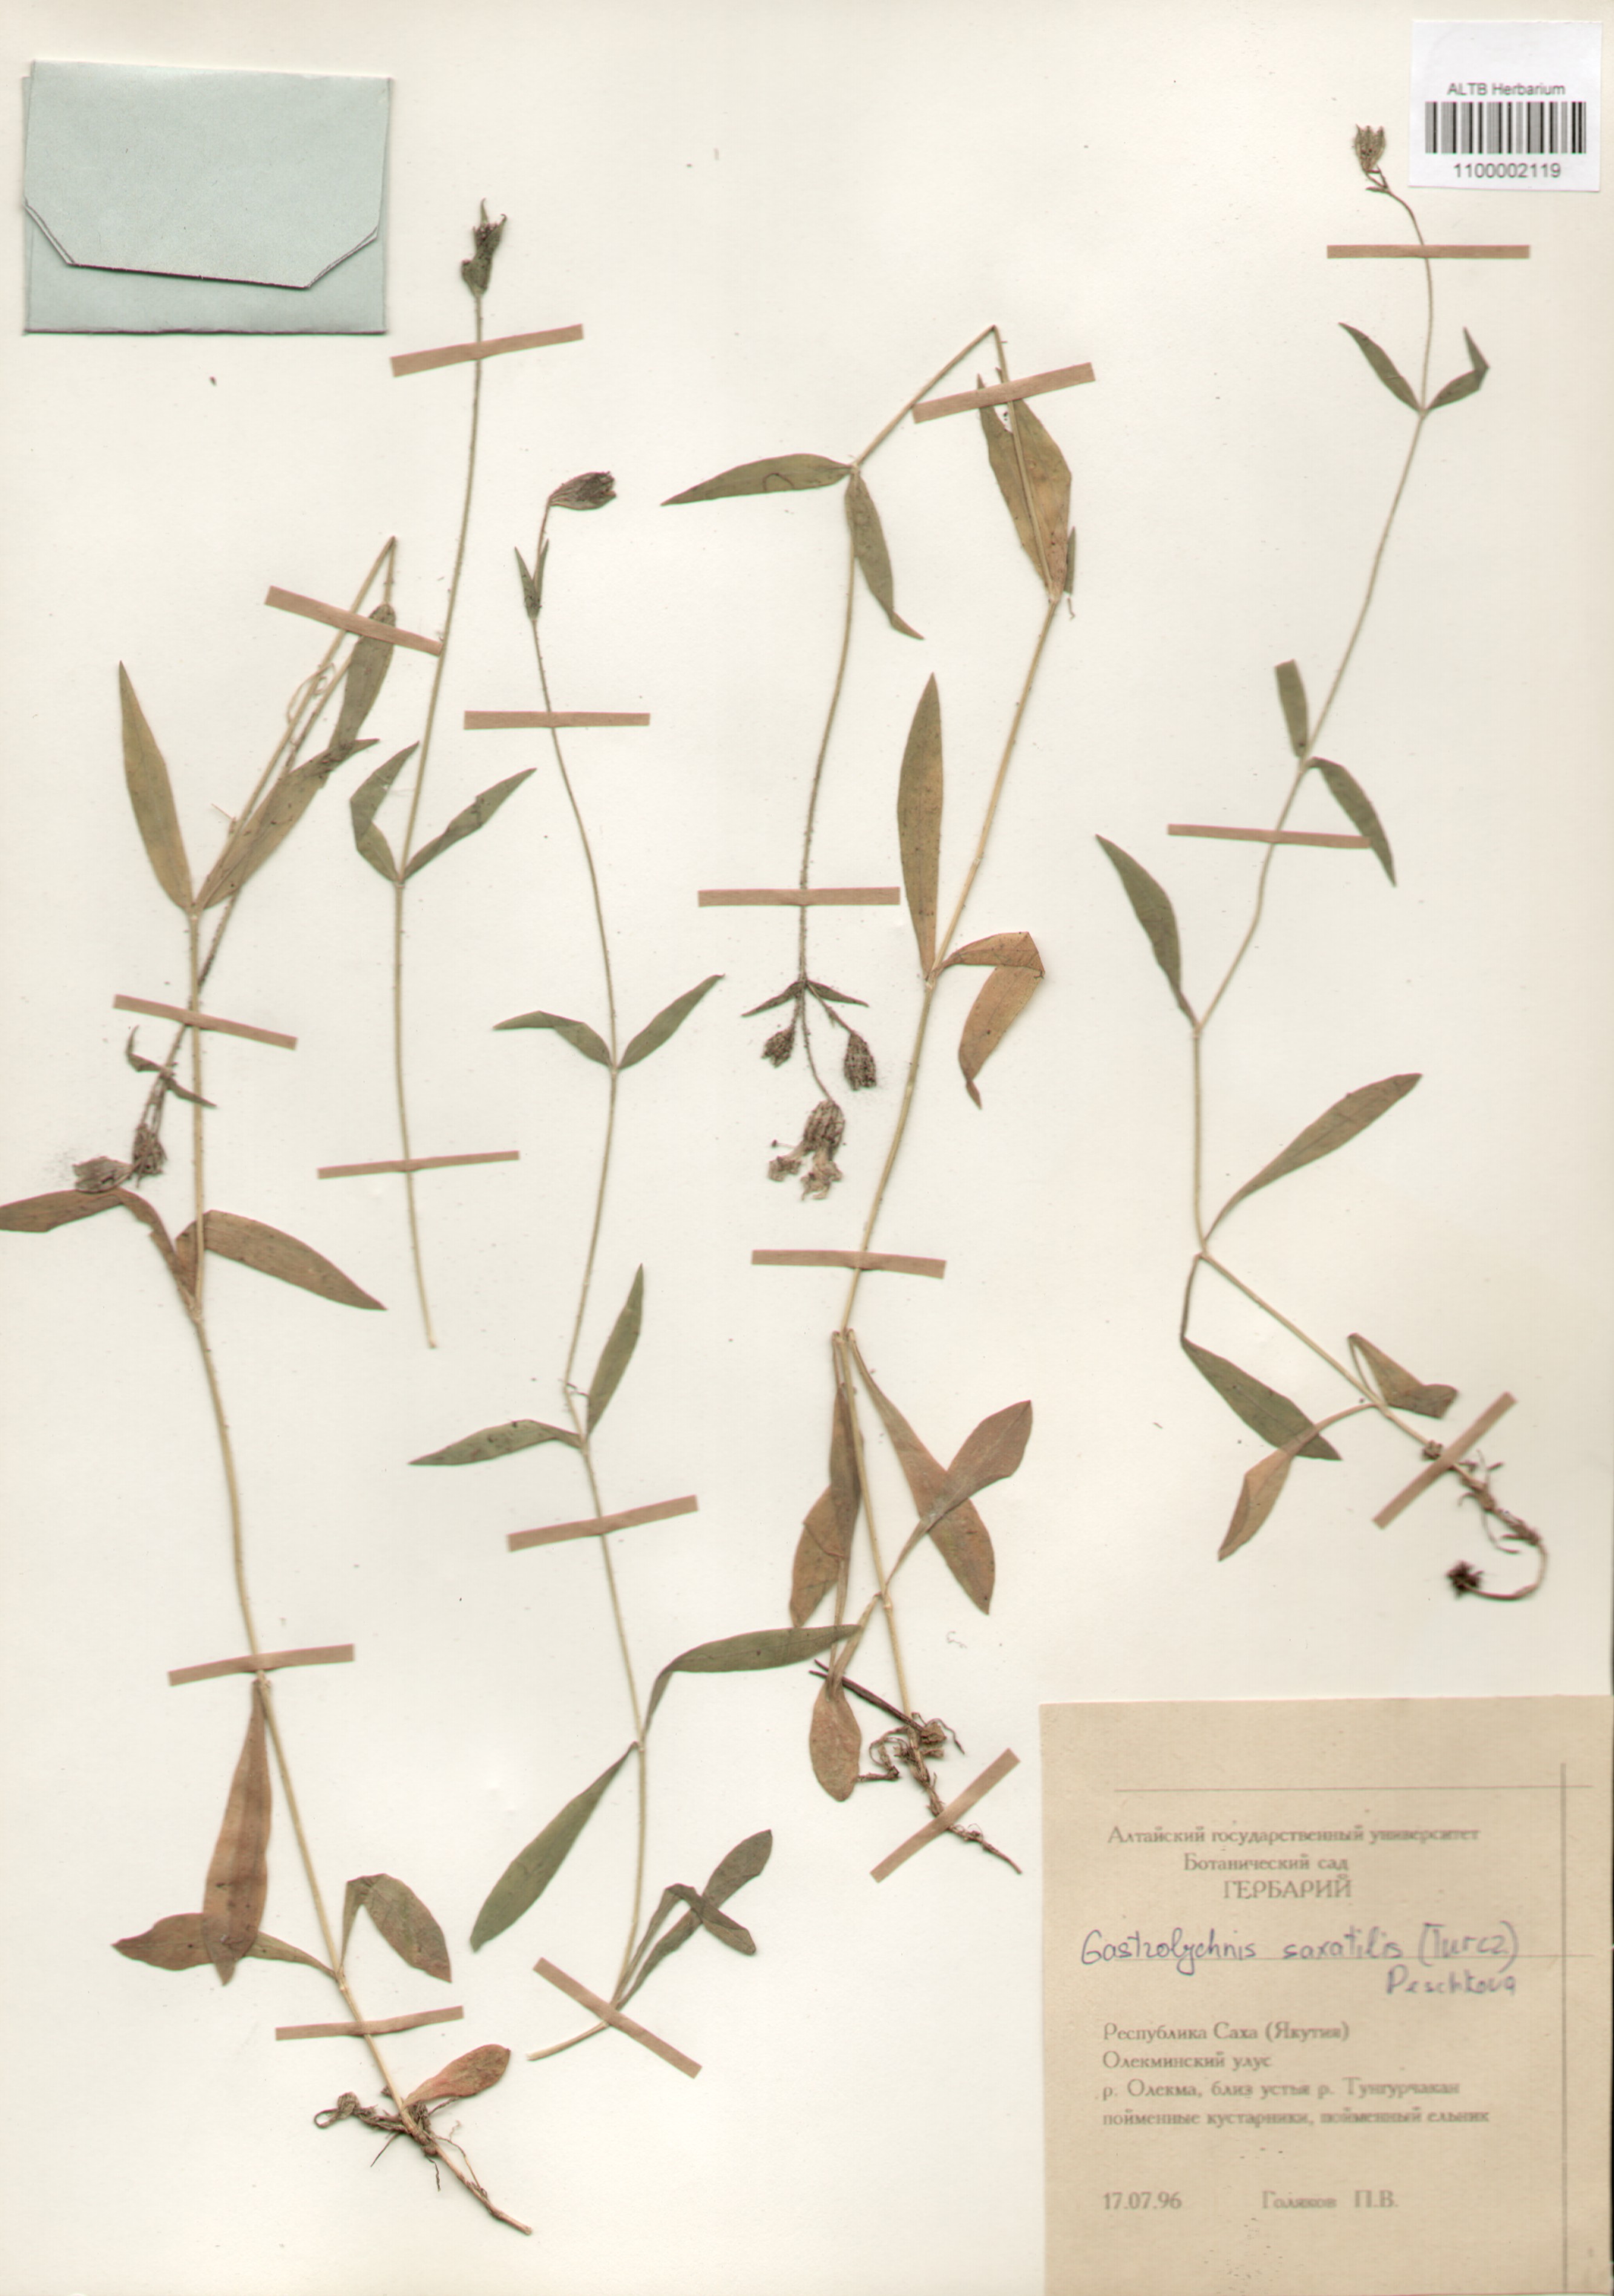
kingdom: Plantae
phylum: Tracheophyta
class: Magnoliopsida
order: Caryophyllales
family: Caryophyllaceae
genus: Silene
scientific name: Silene tolmatchevii
